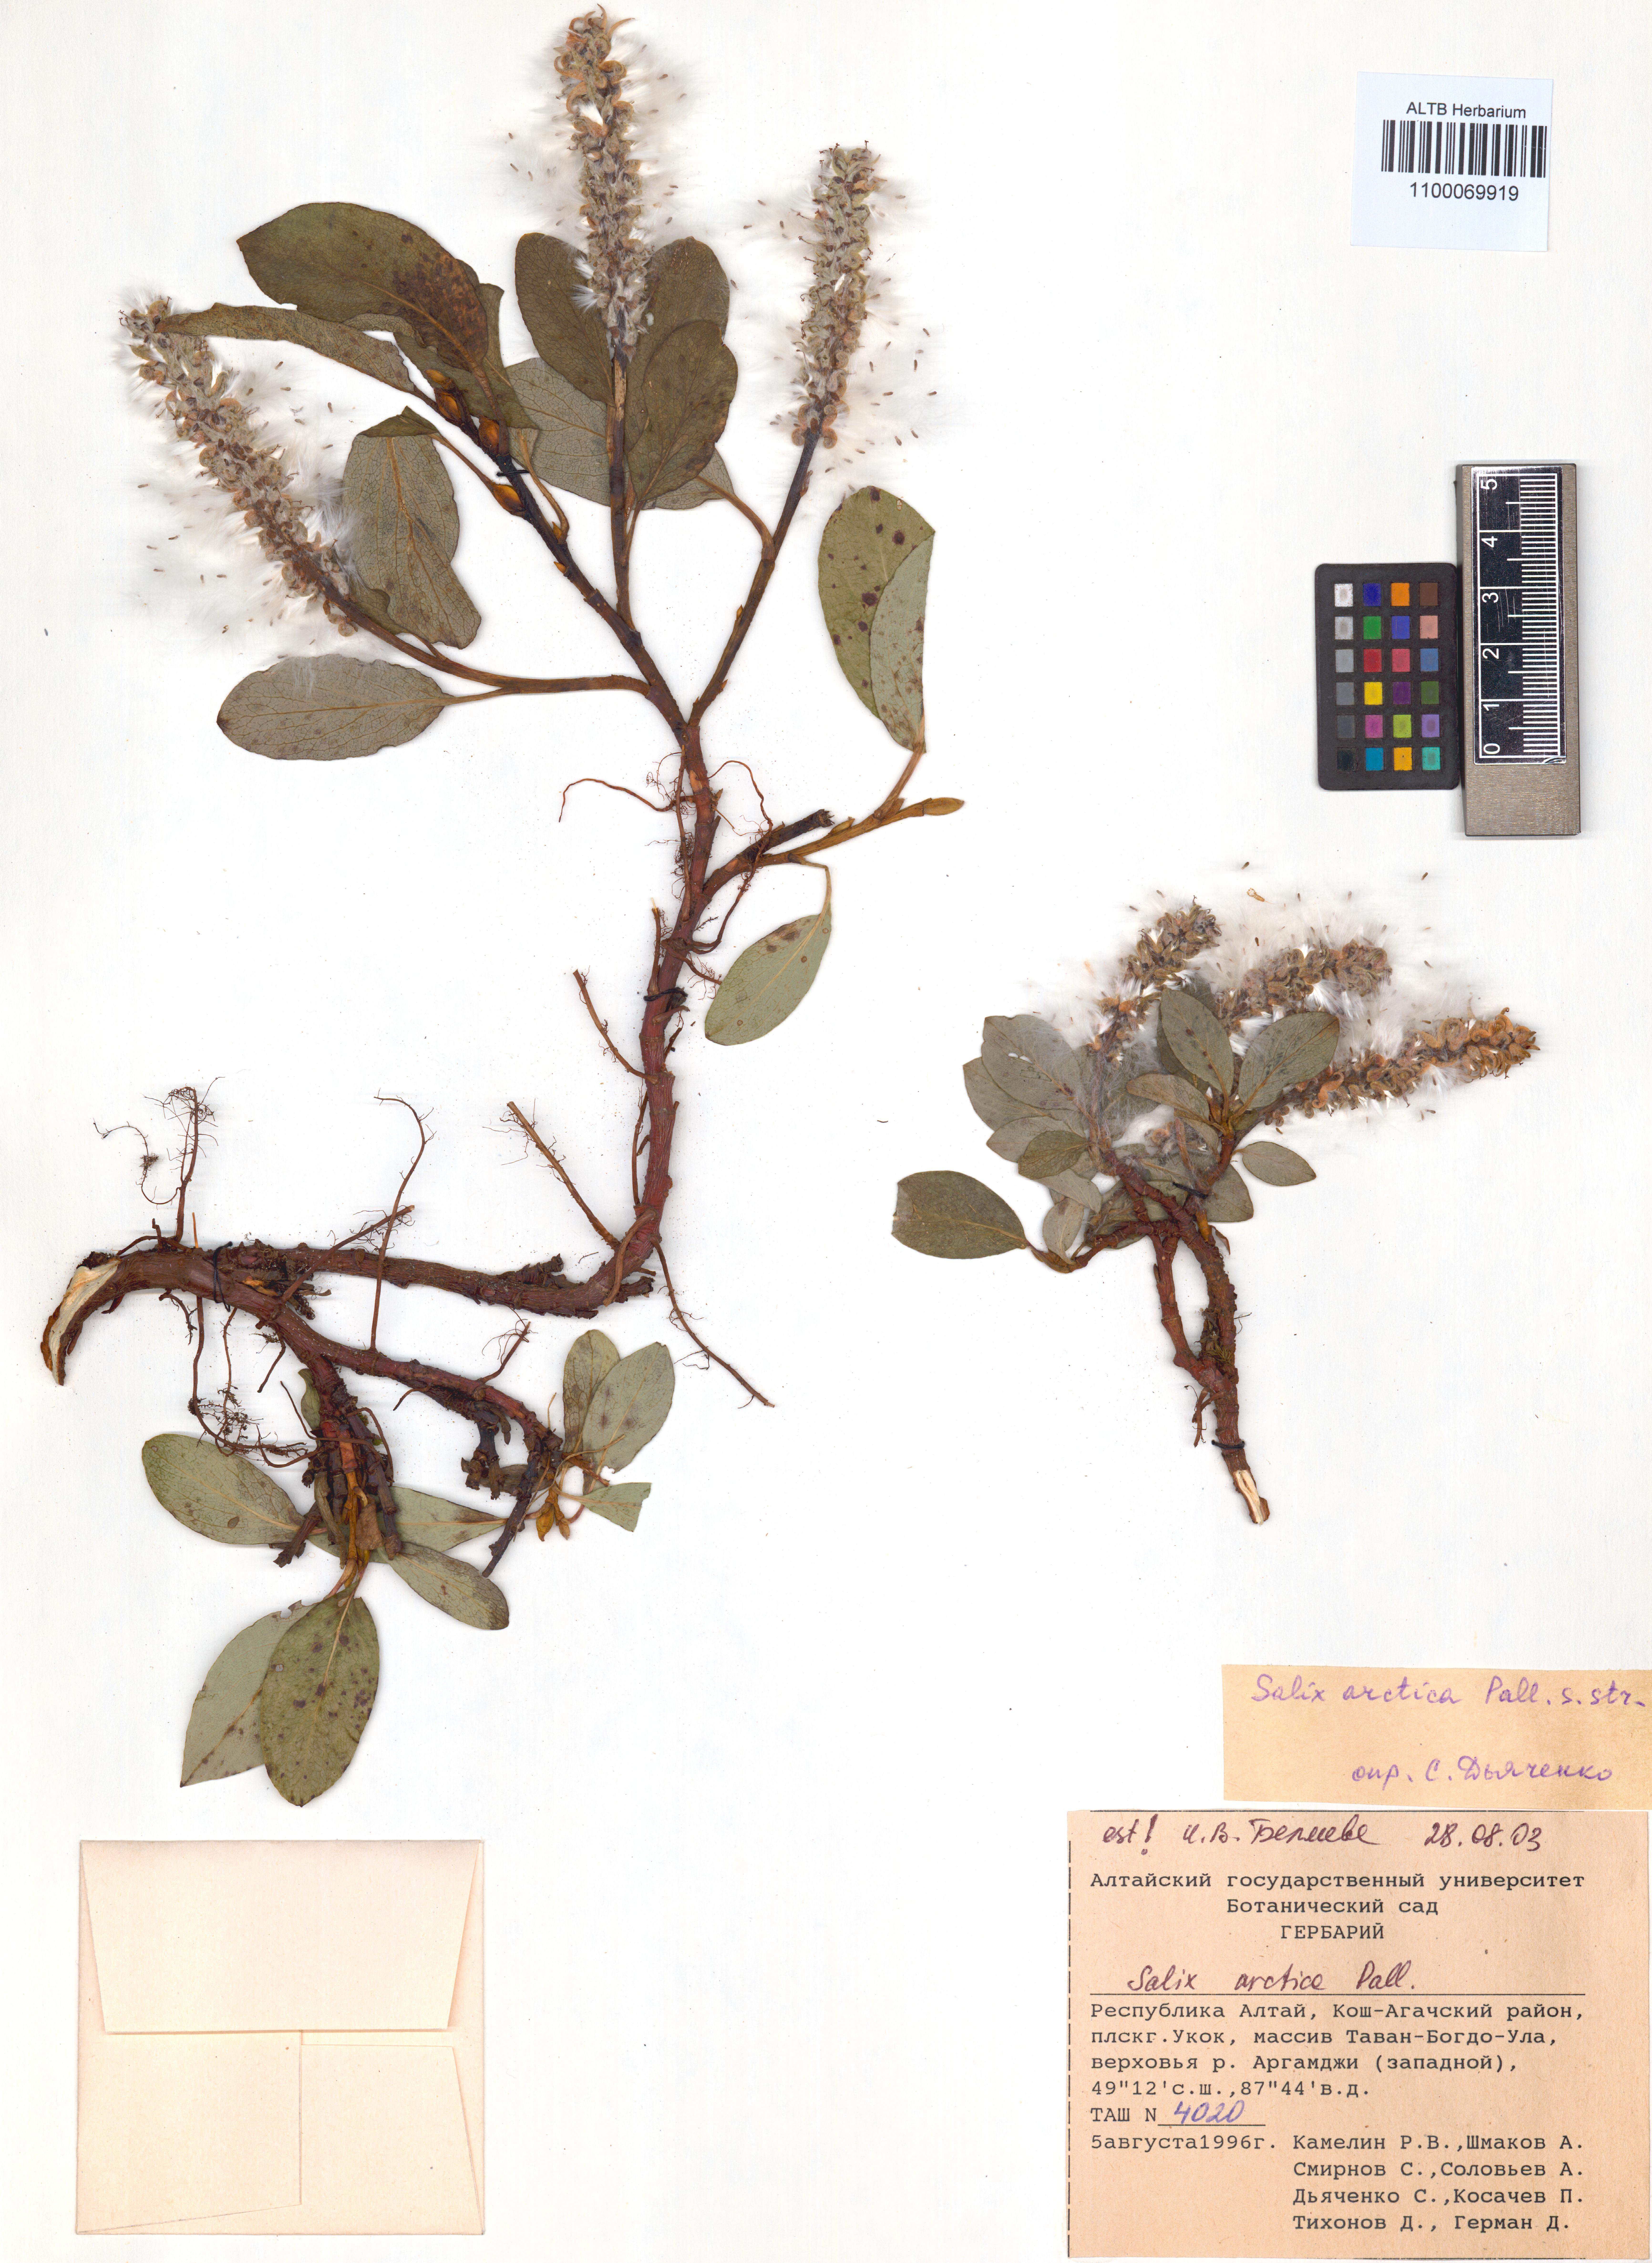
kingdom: Plantae
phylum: Tracheophyta
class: Magnoliopsida
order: Malpighiales
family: Salicaceae
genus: Salix
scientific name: Salix arctica
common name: Arctic willow
